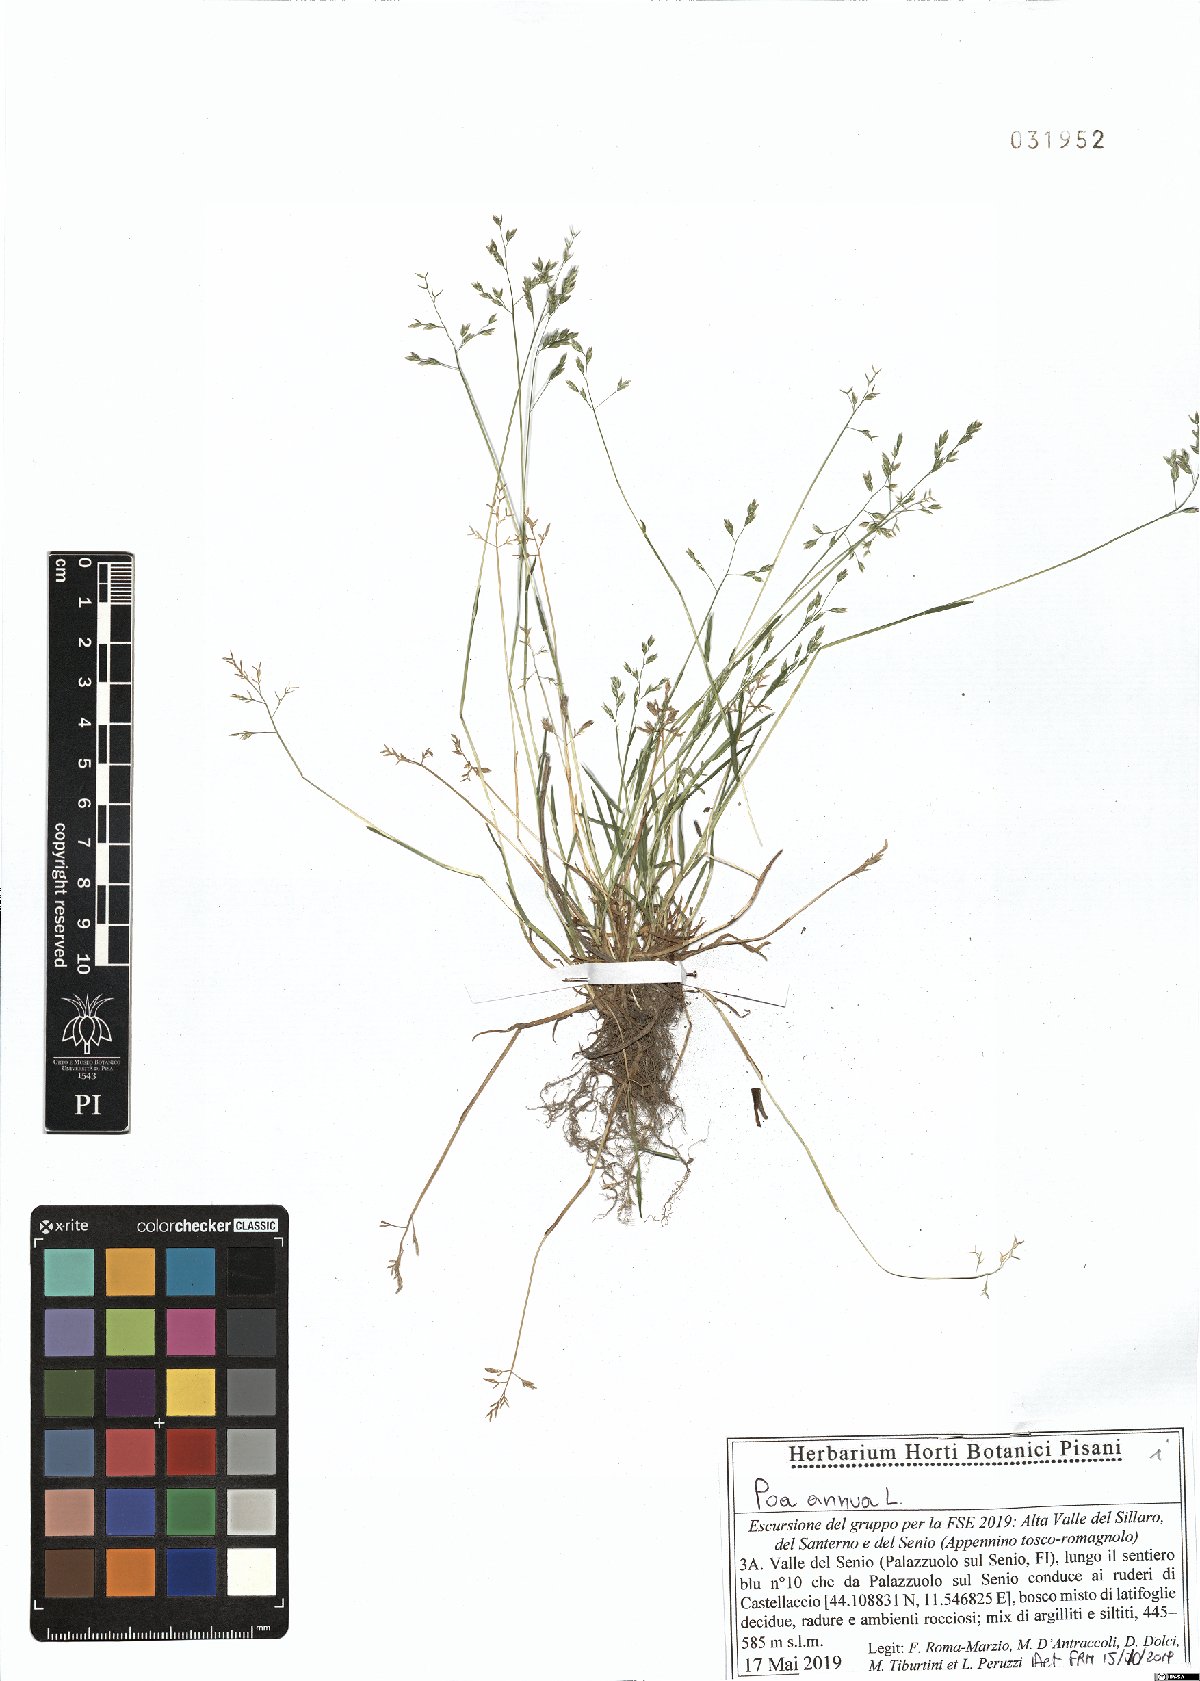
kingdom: Plantae
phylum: Tracheophyta
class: Liliopsida
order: Poales
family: Poaceae
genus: Poa
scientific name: Poa annua
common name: Annual bluegrass
